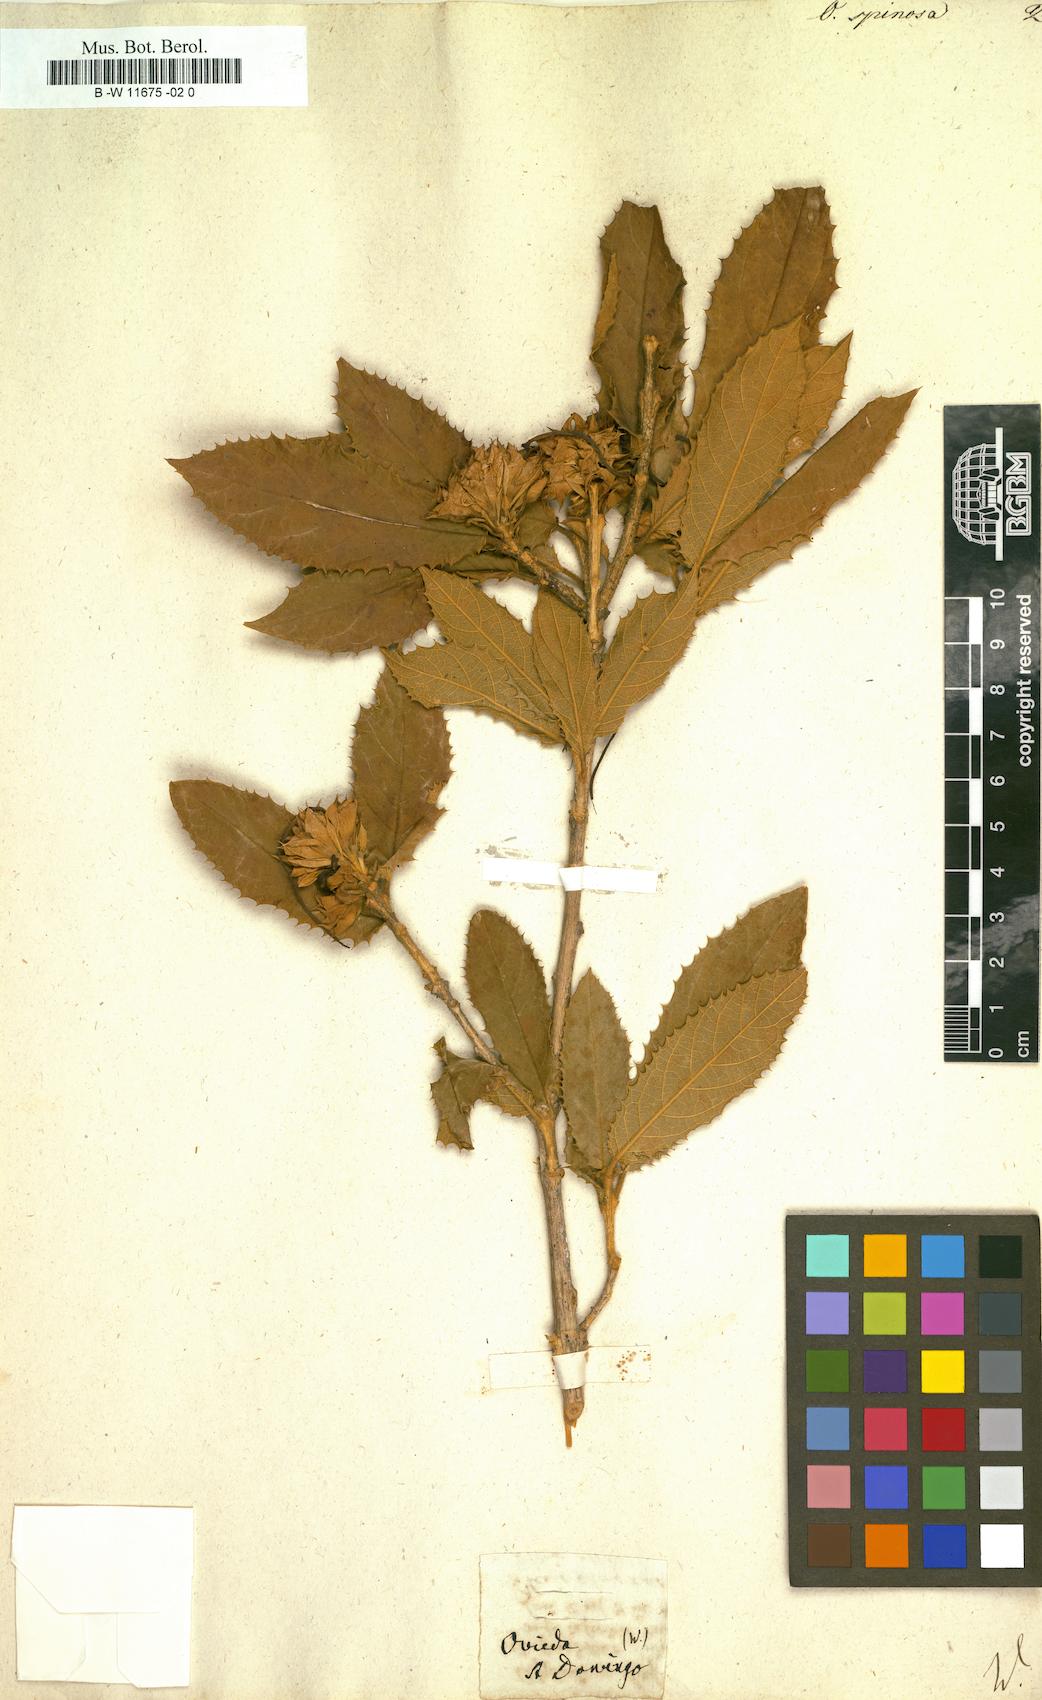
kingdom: Plantae
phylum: Tracheophyta
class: Magnoliopsida
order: Lamiales
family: Lamiaceae
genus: Ovieda
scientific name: Ovieda spinosa
